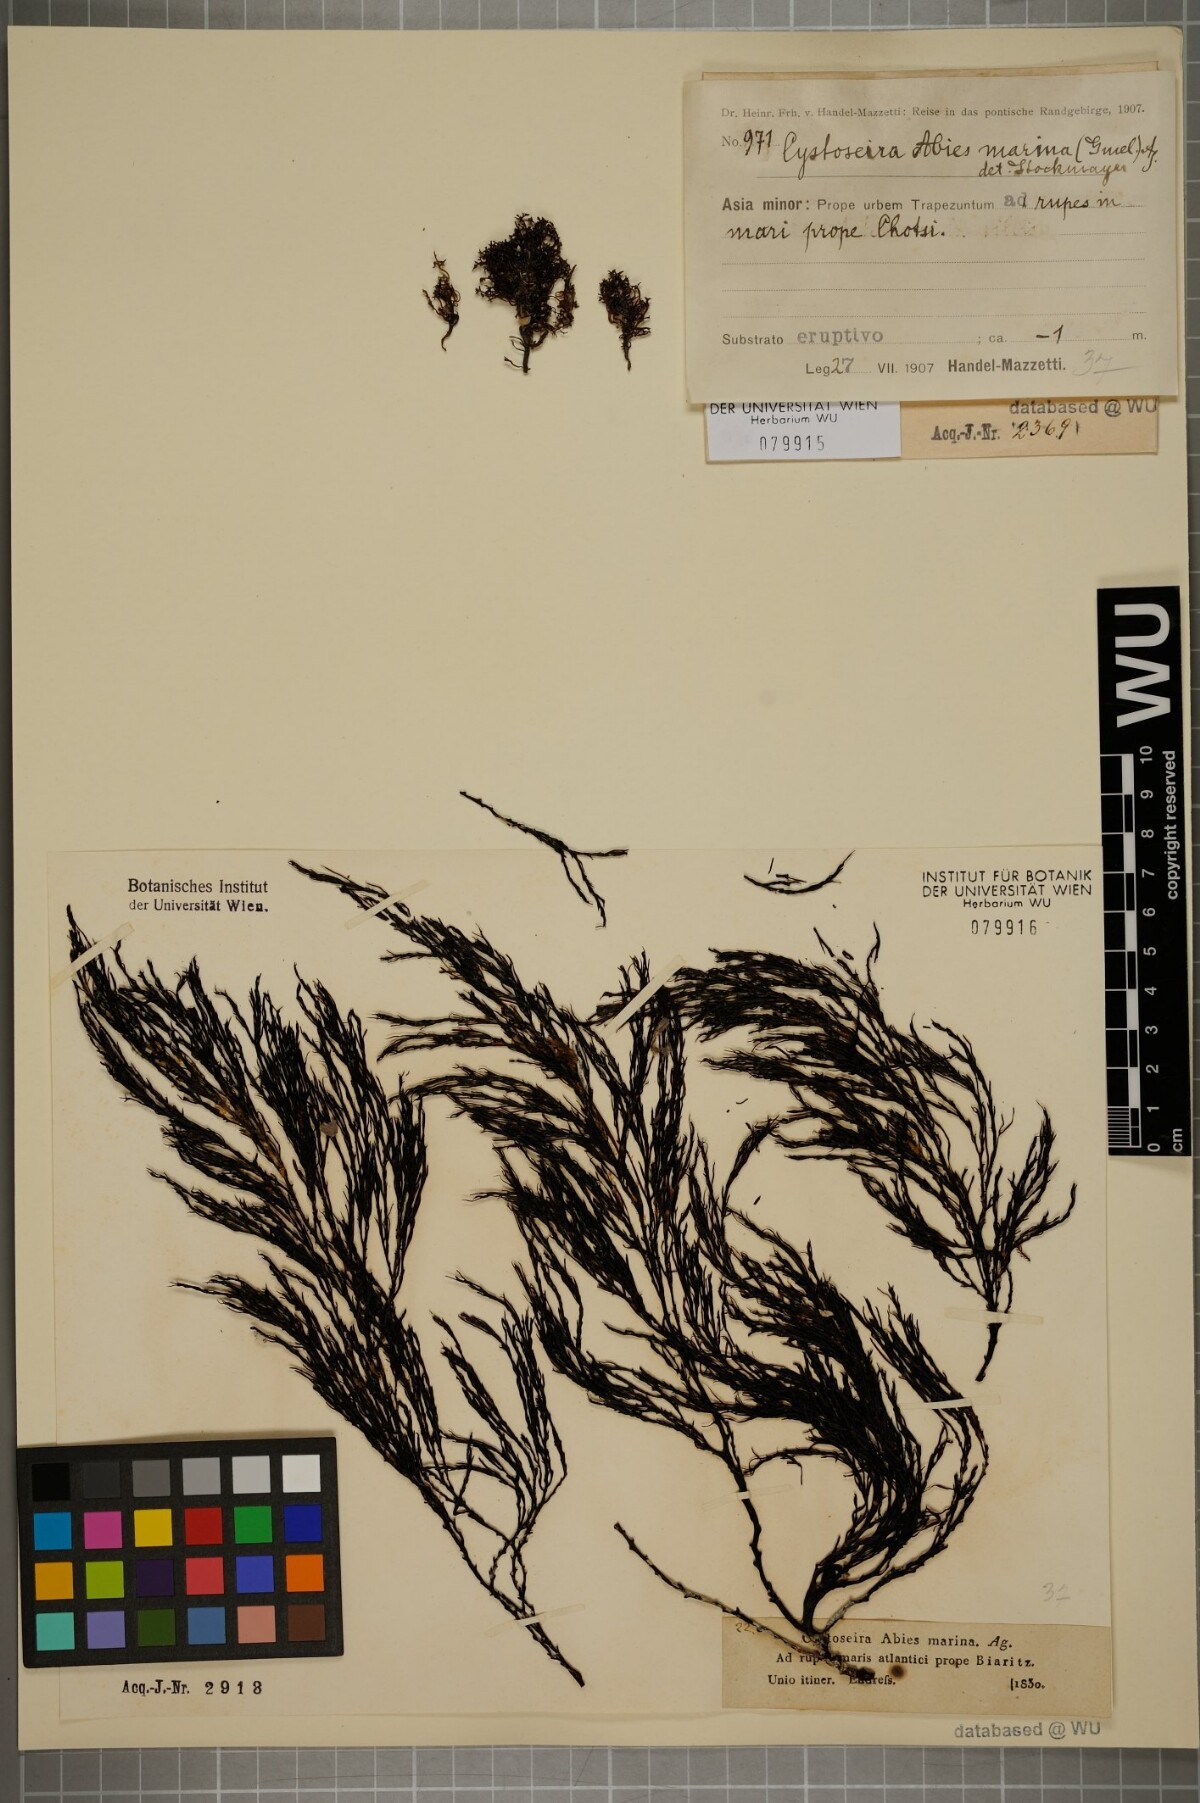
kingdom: Chromista
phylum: Ochrophyta
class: Phaeophyceae
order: Fucales
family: Sargassaceae
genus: Cystoseira
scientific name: Cystoseira Gongolaria abies-marina
